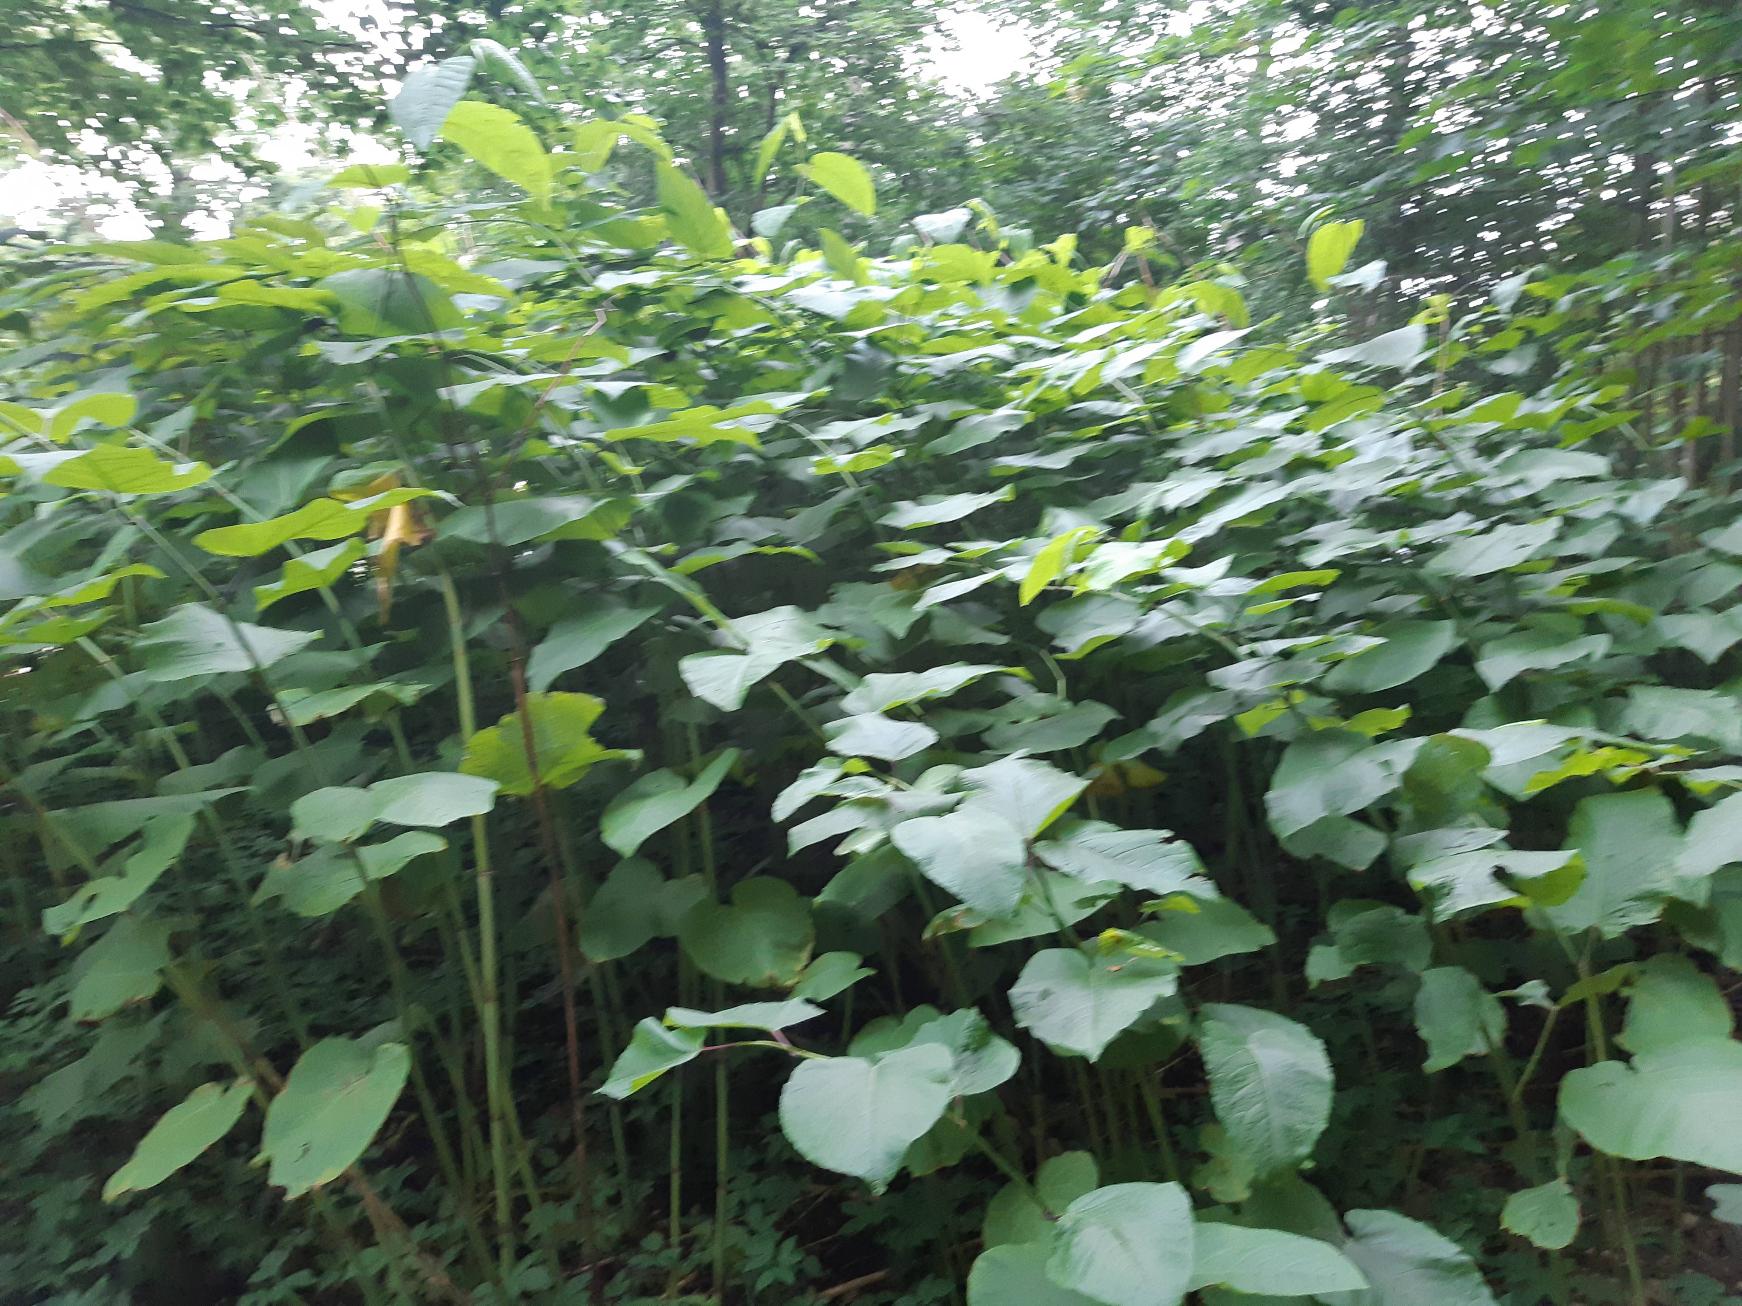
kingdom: Plantae
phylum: Tracheophyta
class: Magnoliopsida
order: Caryophyllales
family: Polygonaceae
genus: Reynoutria
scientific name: Reynoutria sachalinensis
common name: Kæmpe-pileurt
